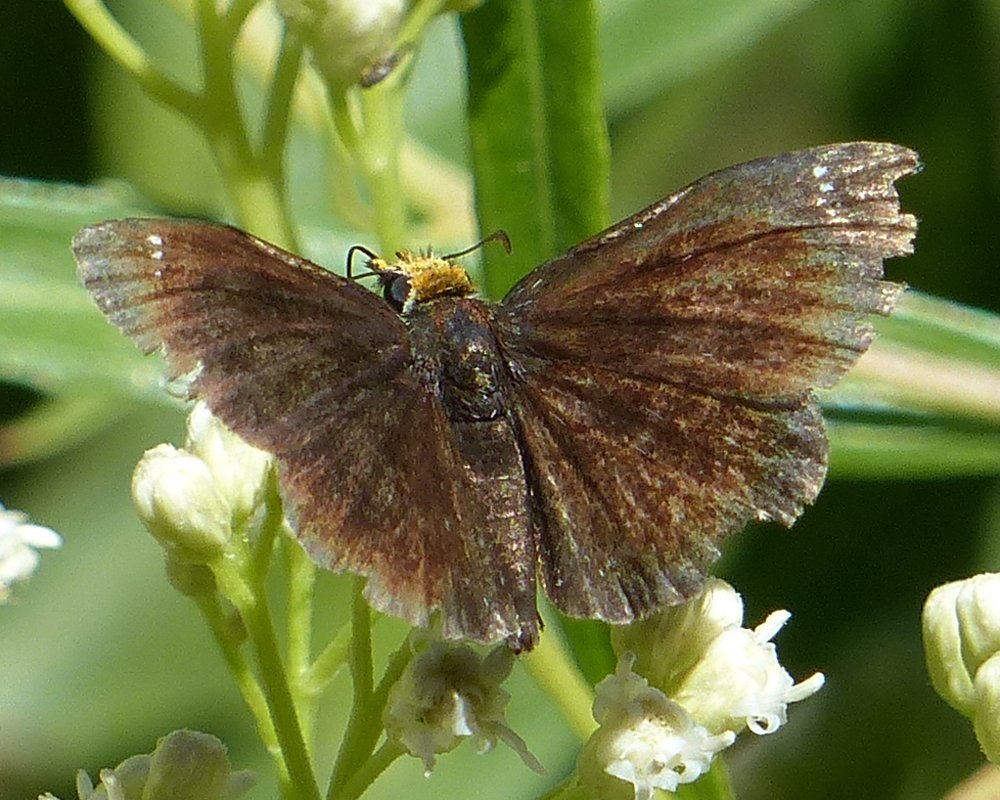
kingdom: Animalia
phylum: Arthropoda
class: Insecta
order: Lepidoptera
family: Hesperiidae
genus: Staphylus
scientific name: Staphylus ceos
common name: Golden-headed Scallopwing
